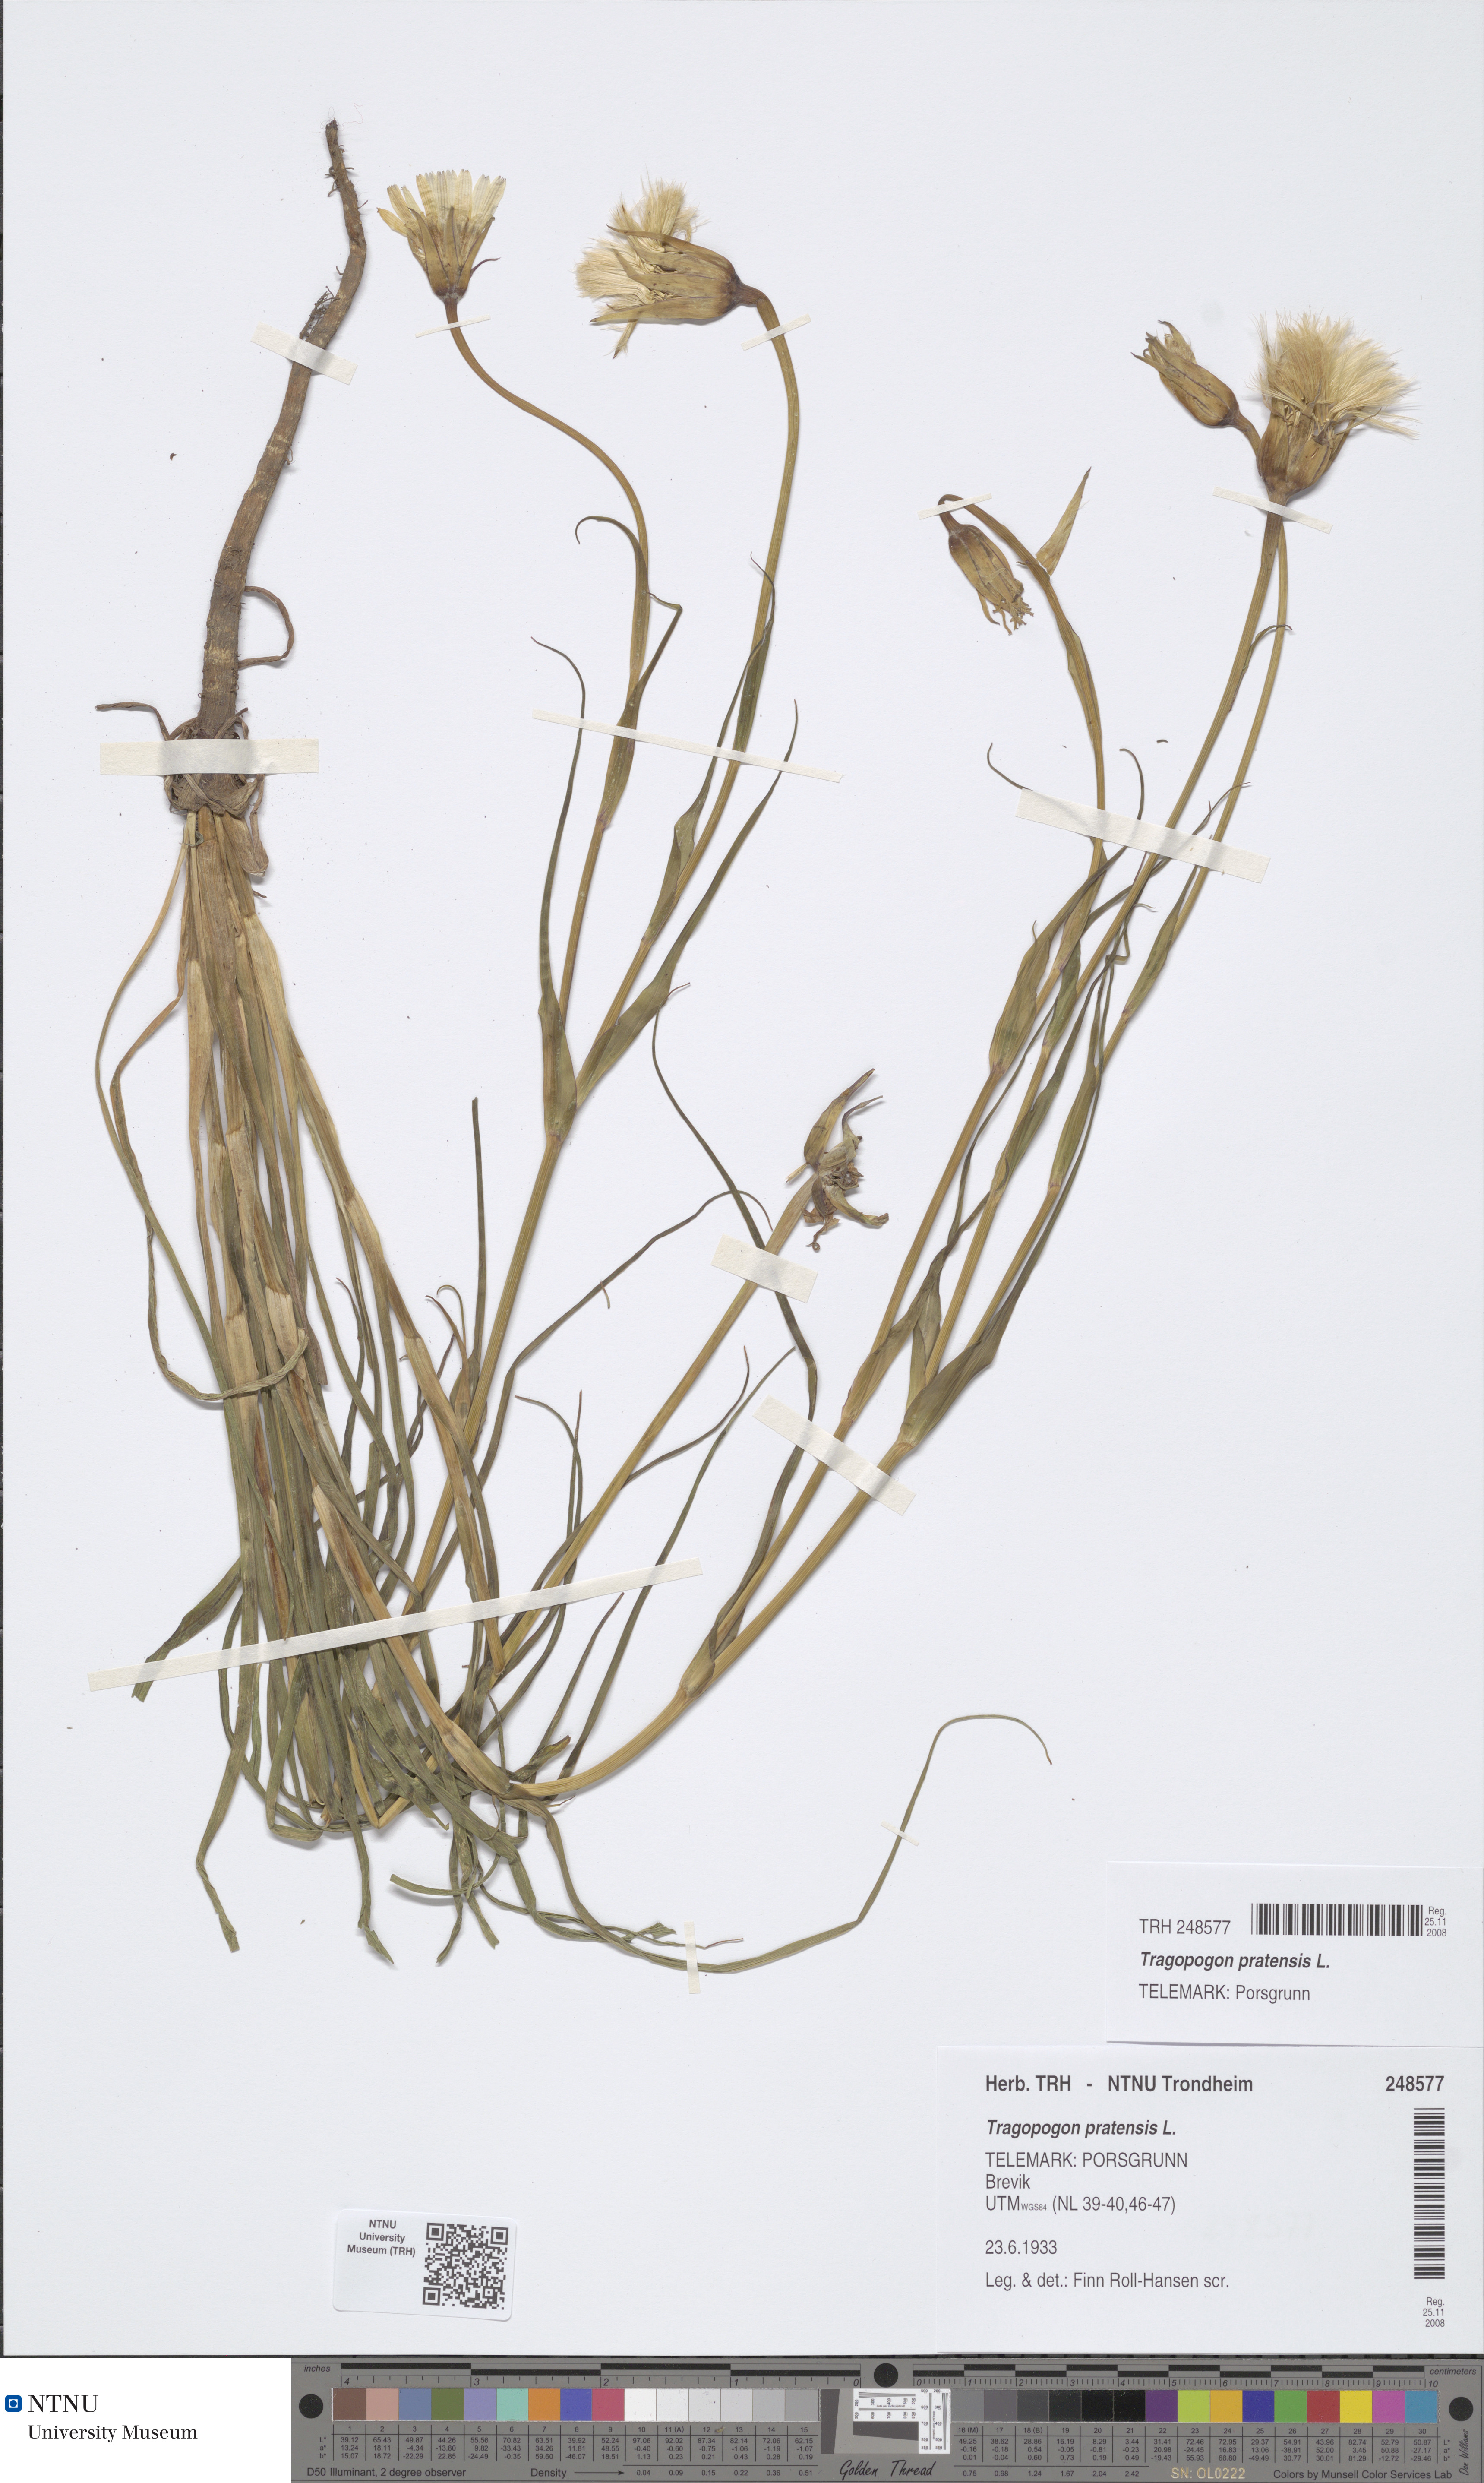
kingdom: Plantae
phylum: Tracheophyta
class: Magnoliopsida
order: Asterales
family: Asteraceae
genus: Tragopogon
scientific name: Tragopogon pratensis
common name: Goat's-beard
